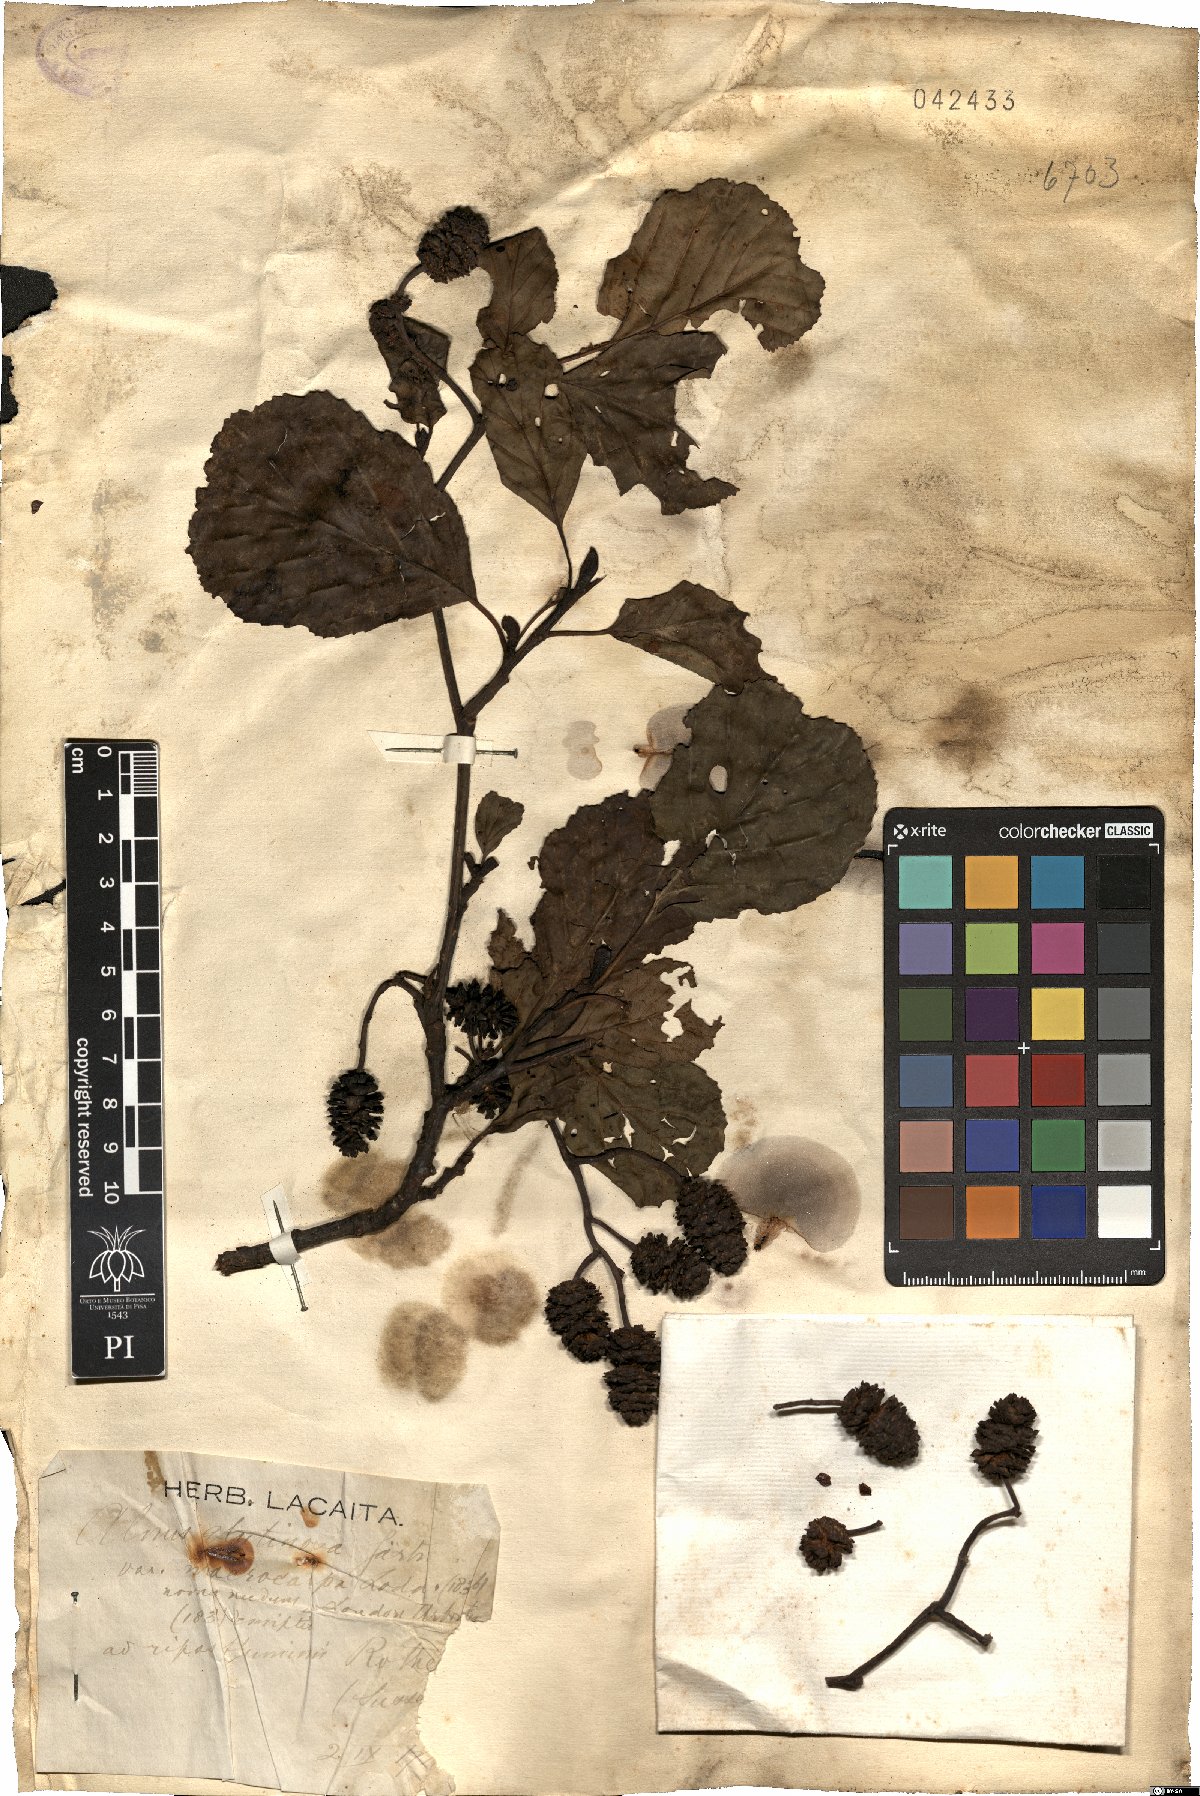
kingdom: Plantae
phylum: Tracheophyta
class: Magnoliopsida
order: Fagales
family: Betulaceae
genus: Alnus
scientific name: Alnus glutinosa
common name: Black alder
